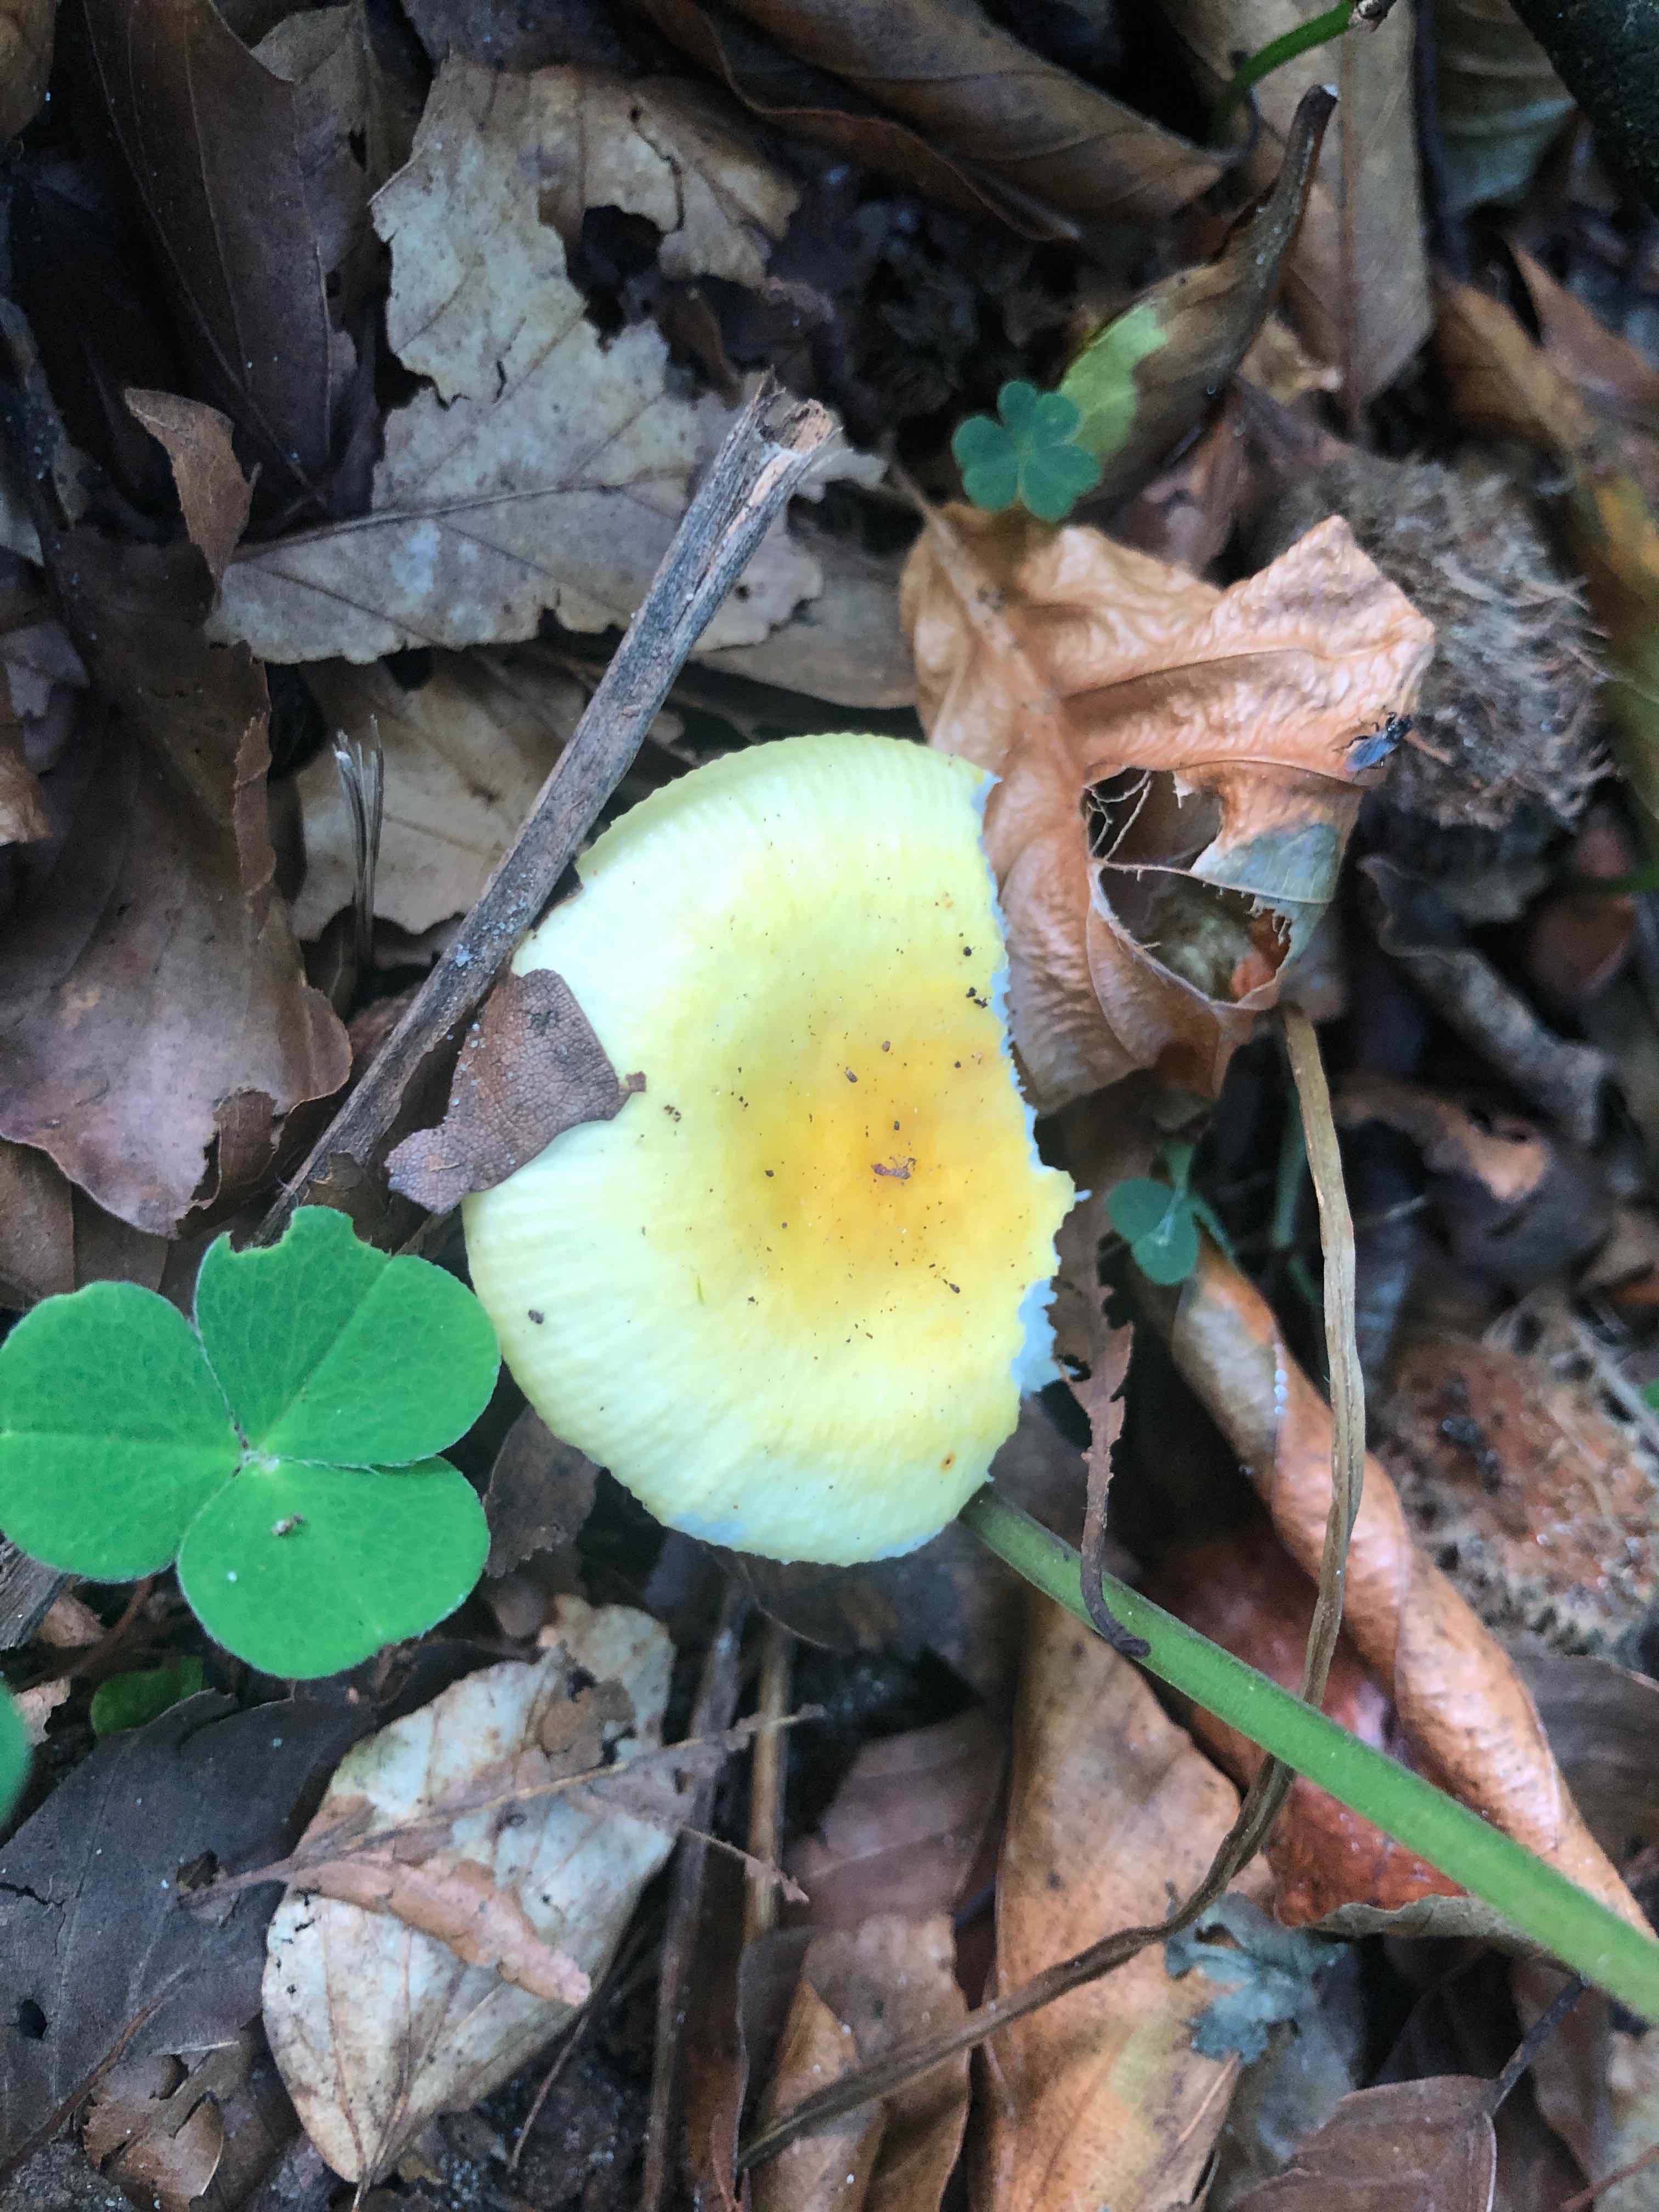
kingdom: Fungi
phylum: Basidiomycota
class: Agaricomycetes
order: Russulales
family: Russulaceae
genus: Russula
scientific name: Russula solaris
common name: sol-skørhat
